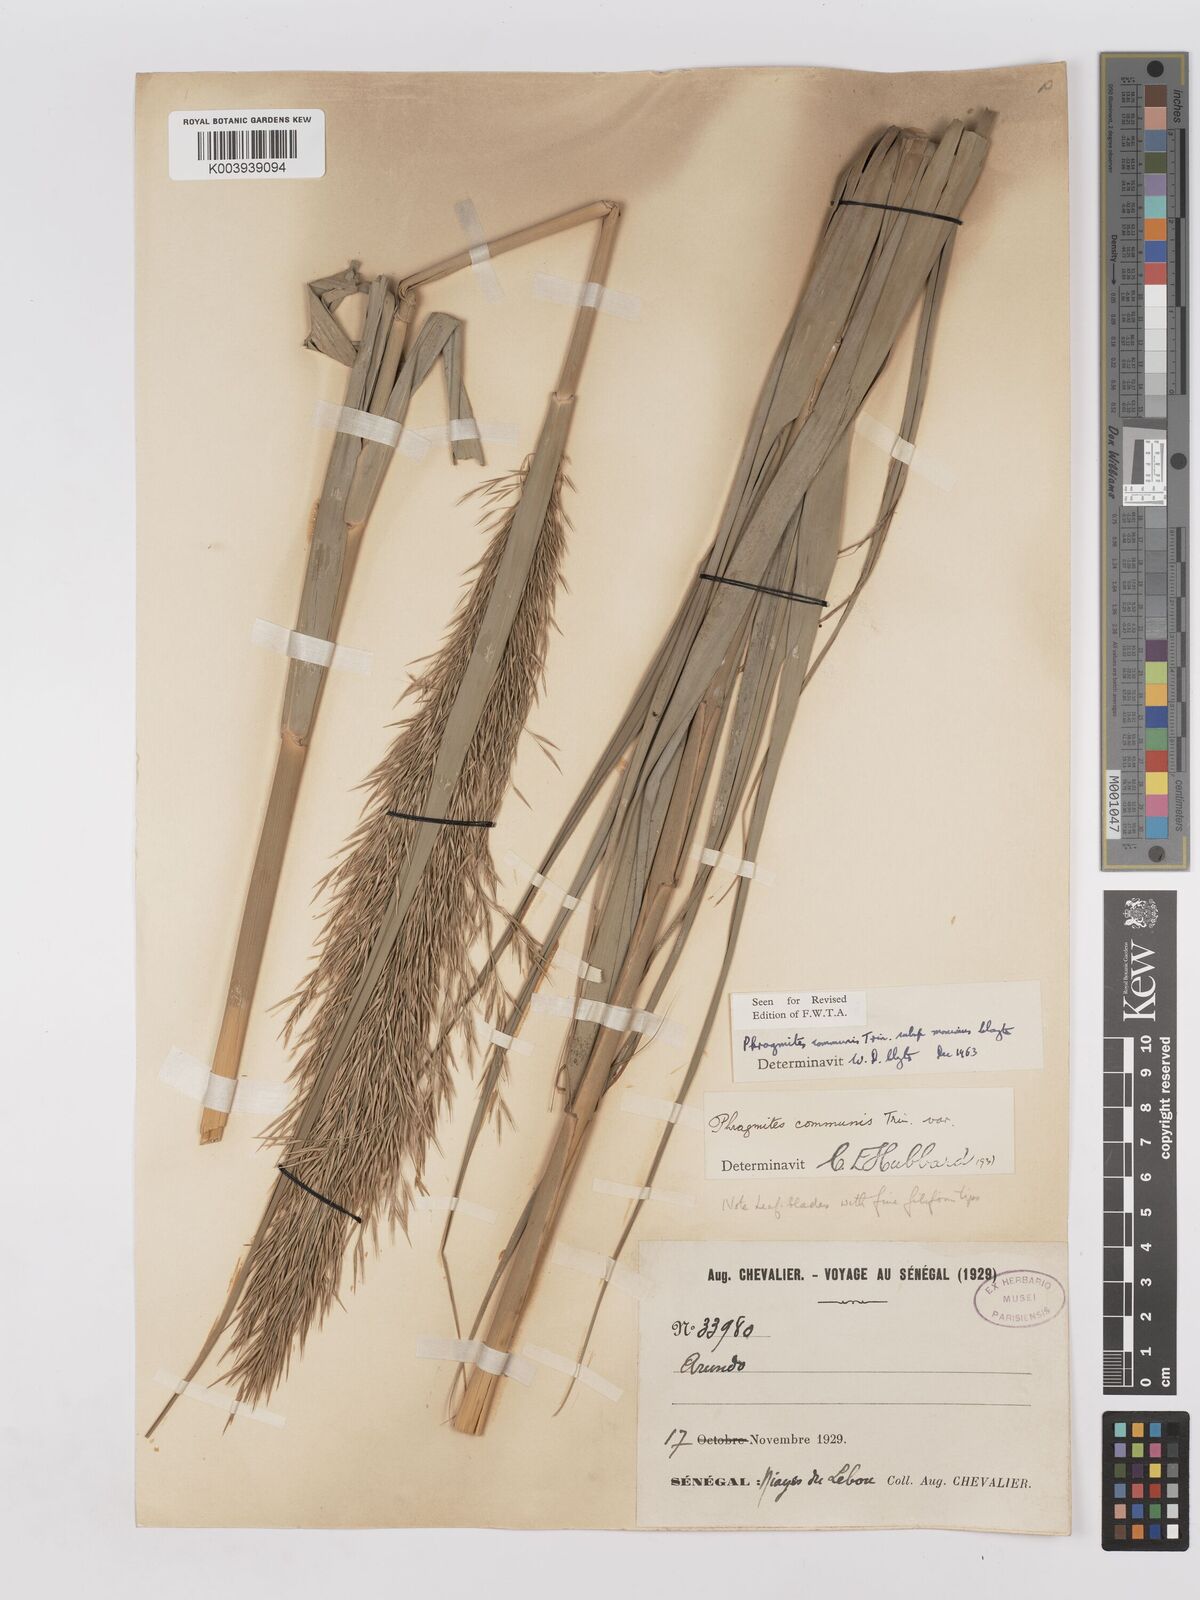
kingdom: Plantae
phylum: Tracheophyta
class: Liliopsida
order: Poales
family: Poaceae
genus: Phragmites
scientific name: Phragmites australis
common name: Common reed
